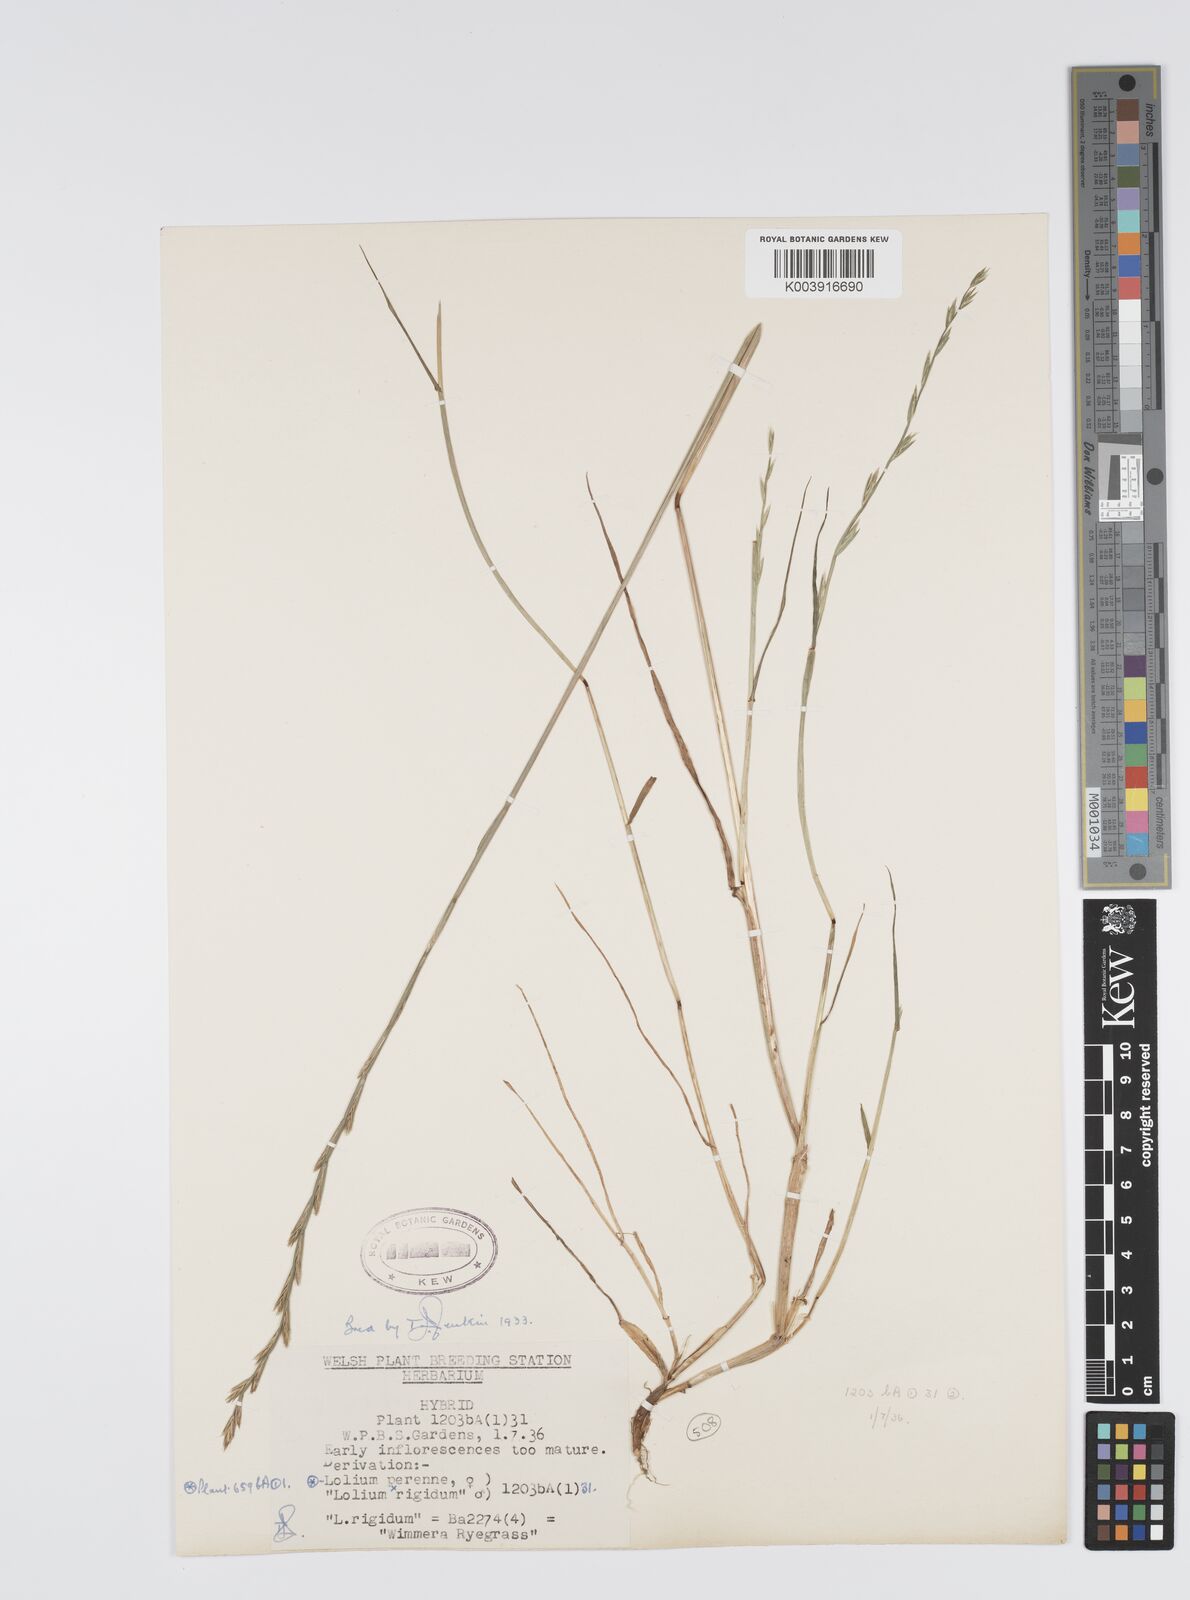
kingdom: Plantae
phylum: Tracheophyta
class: Liliopsida
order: Poales
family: Poaceae
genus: Lolium
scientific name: Lolium perenne
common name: Perennial ryegrass
